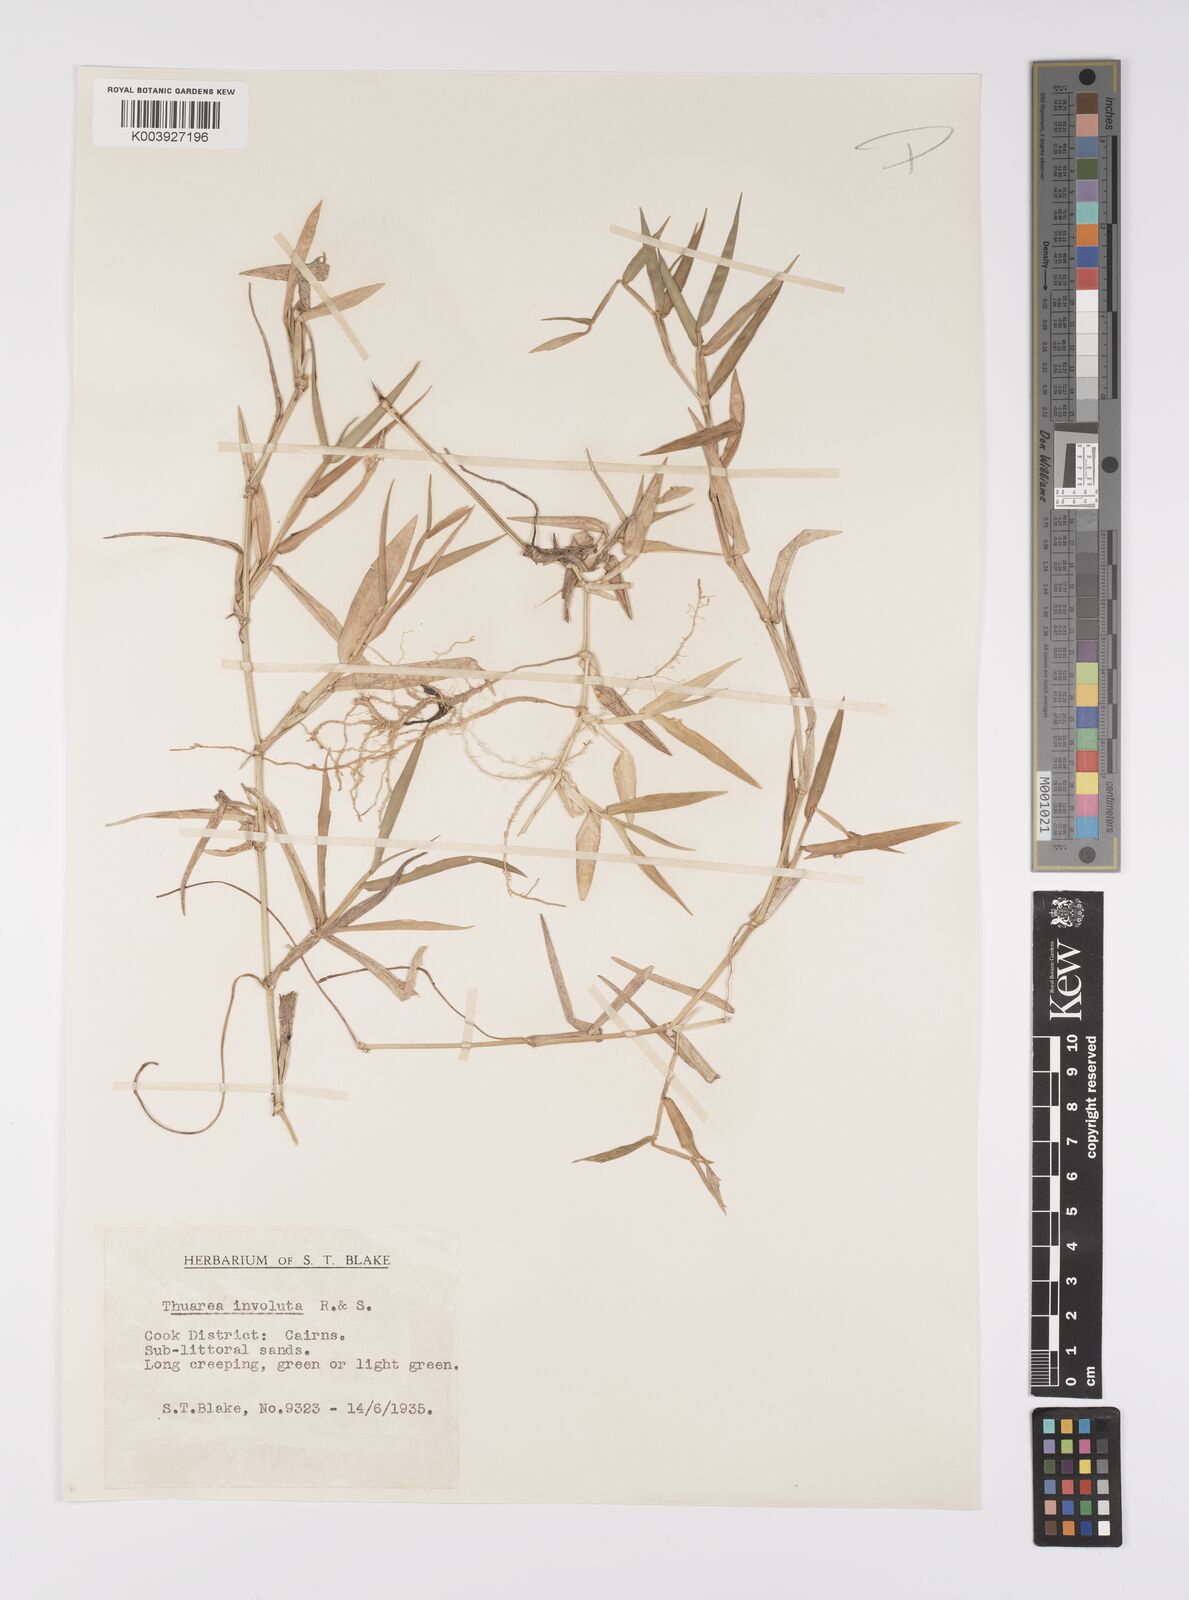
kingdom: Plantae
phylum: Tracheophyta
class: Liliopsida
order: Poales
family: Poaceae
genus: Thuarea
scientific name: Thuarea involuta
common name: Tropical beach grass
